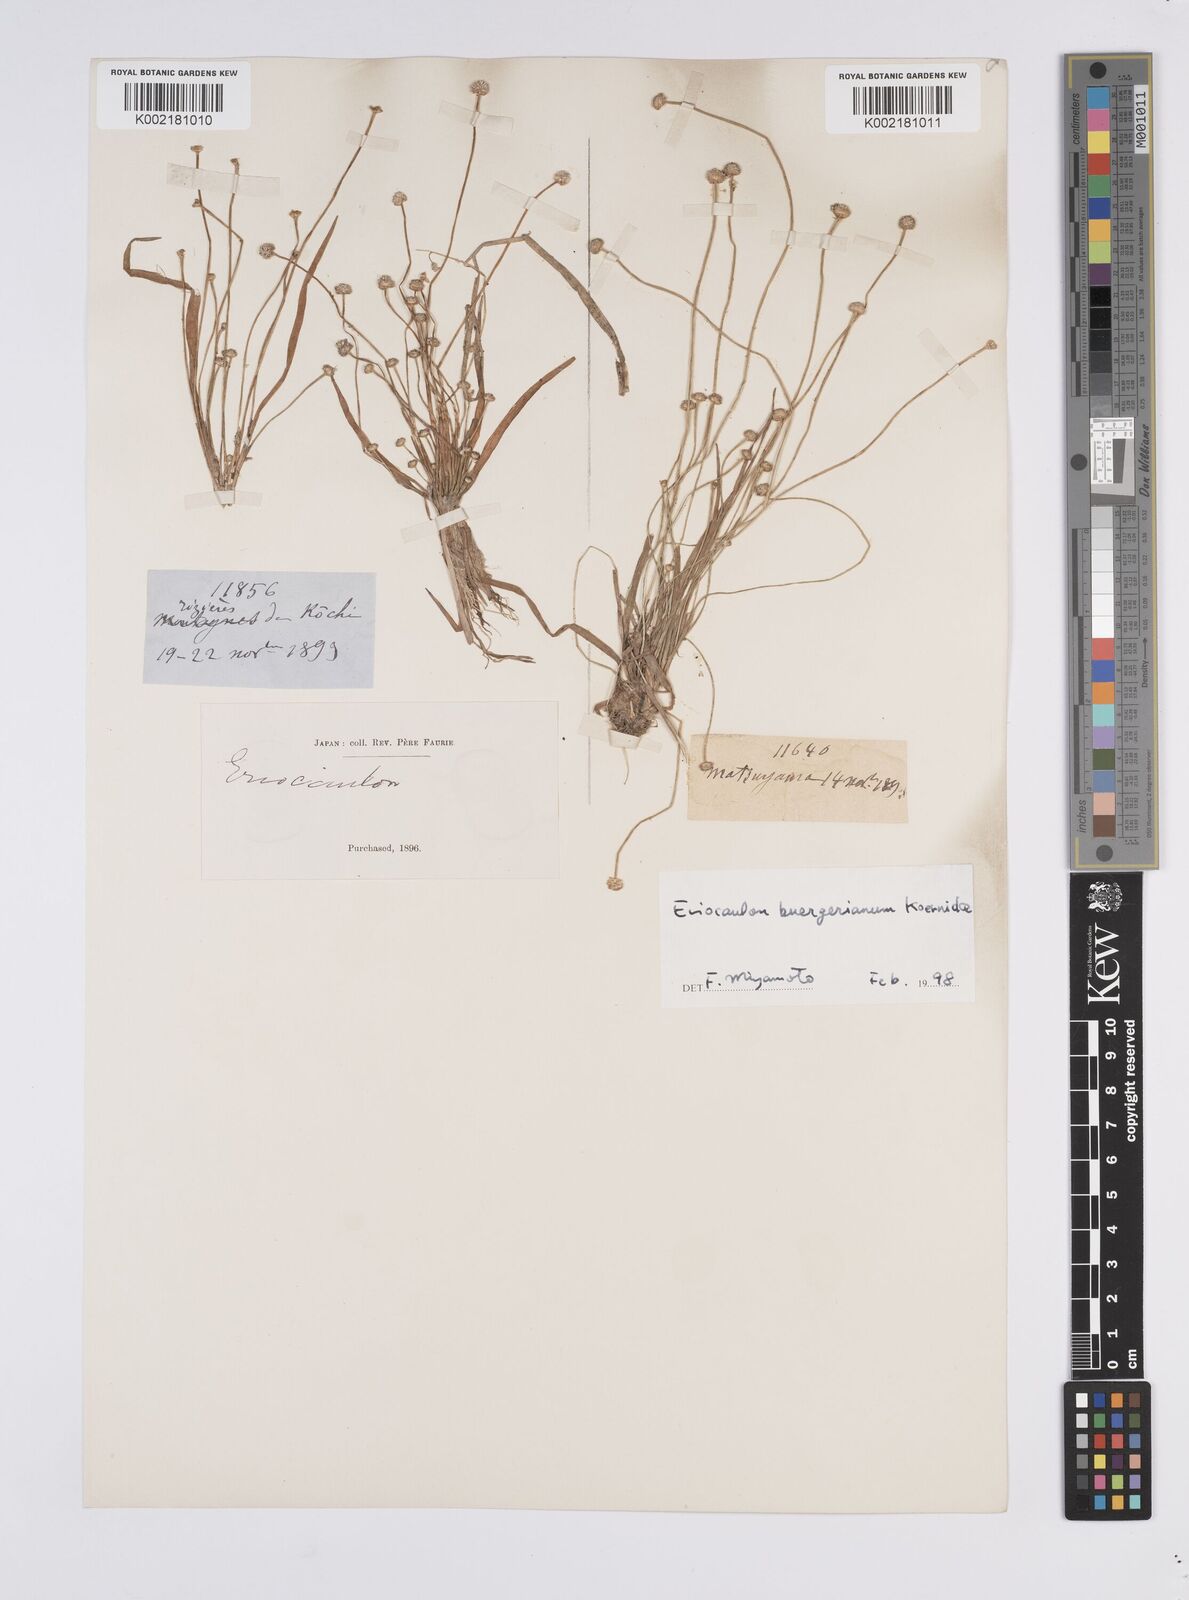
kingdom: Plantae
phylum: Tracheophyta
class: Liliopsida
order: Poales
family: Eriocaulaceae
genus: Eriocaulon
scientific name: Eriocaulon buergerianum
